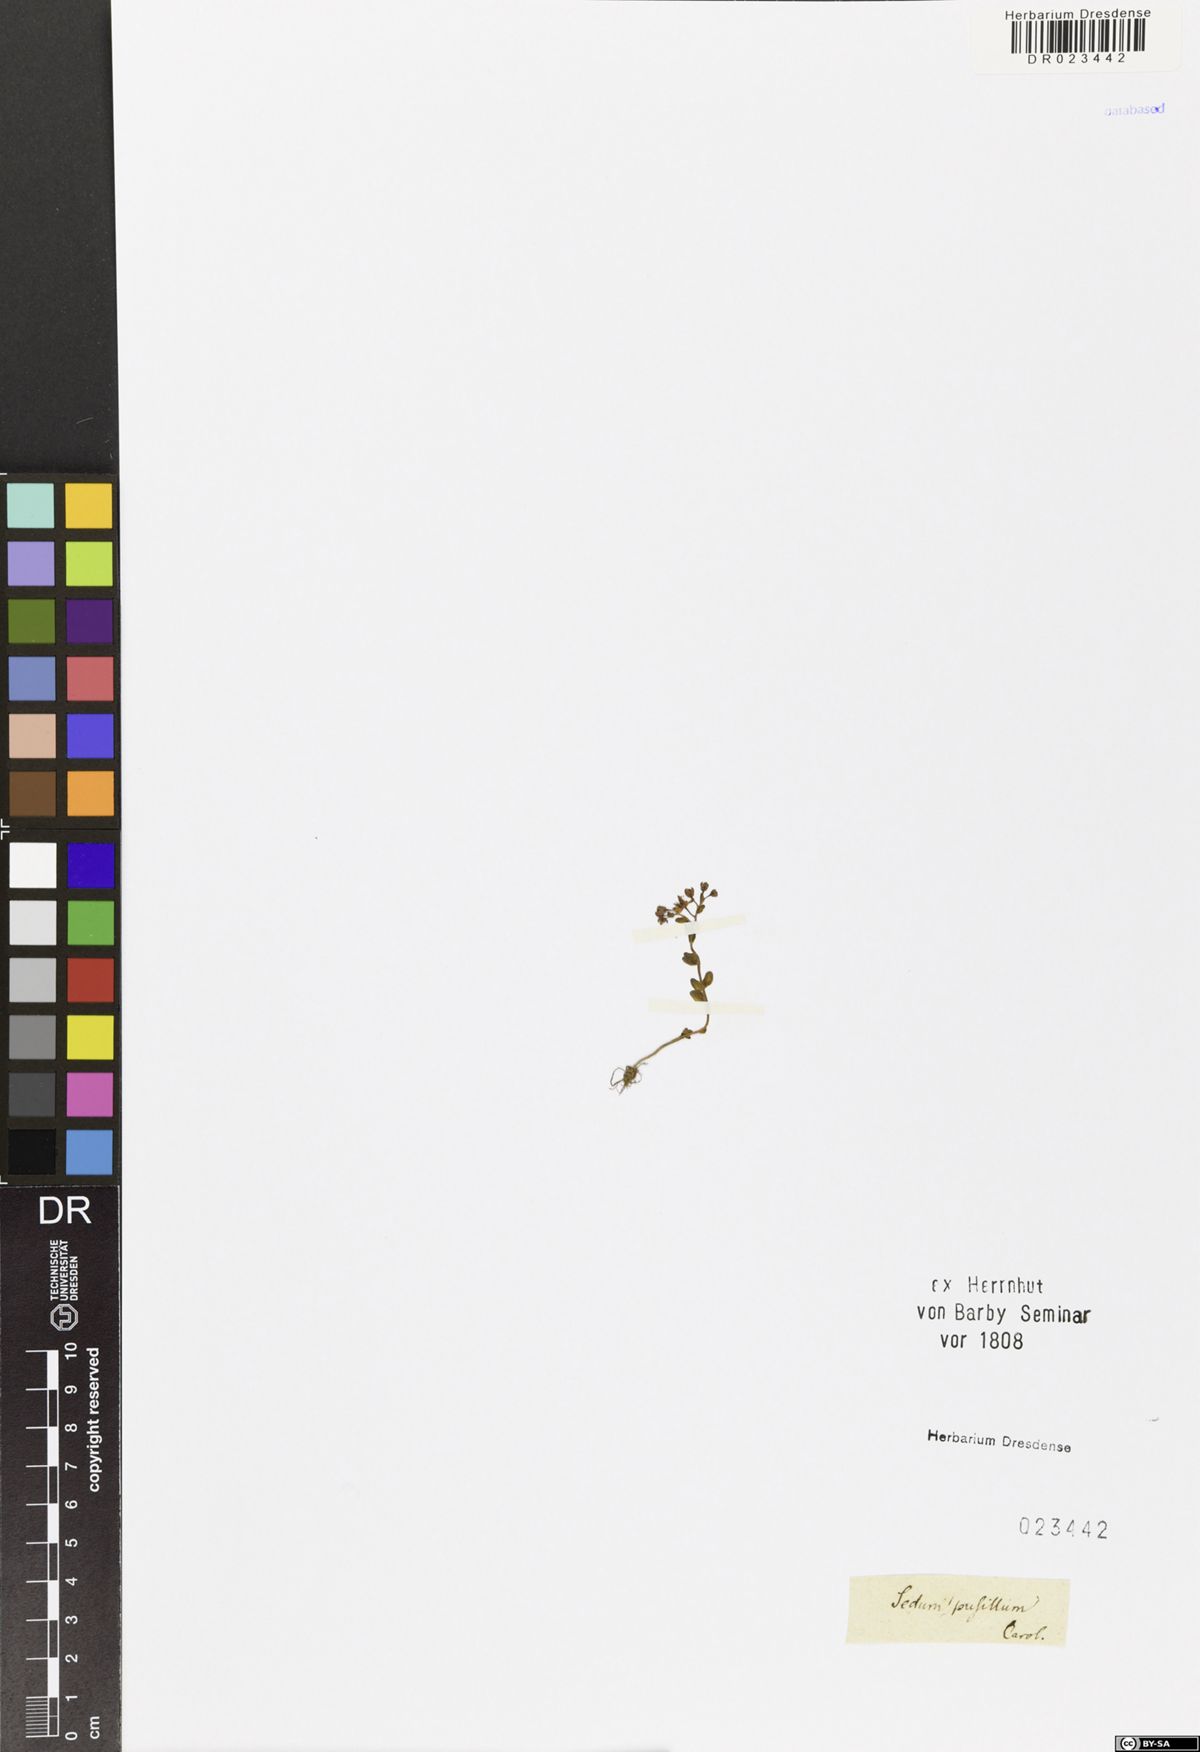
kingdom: Plantae
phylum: Tracheophyta
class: Magnoliopsida
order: Saxifragales
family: Crassulaceae
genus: Sedum
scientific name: Sedum pusillum
